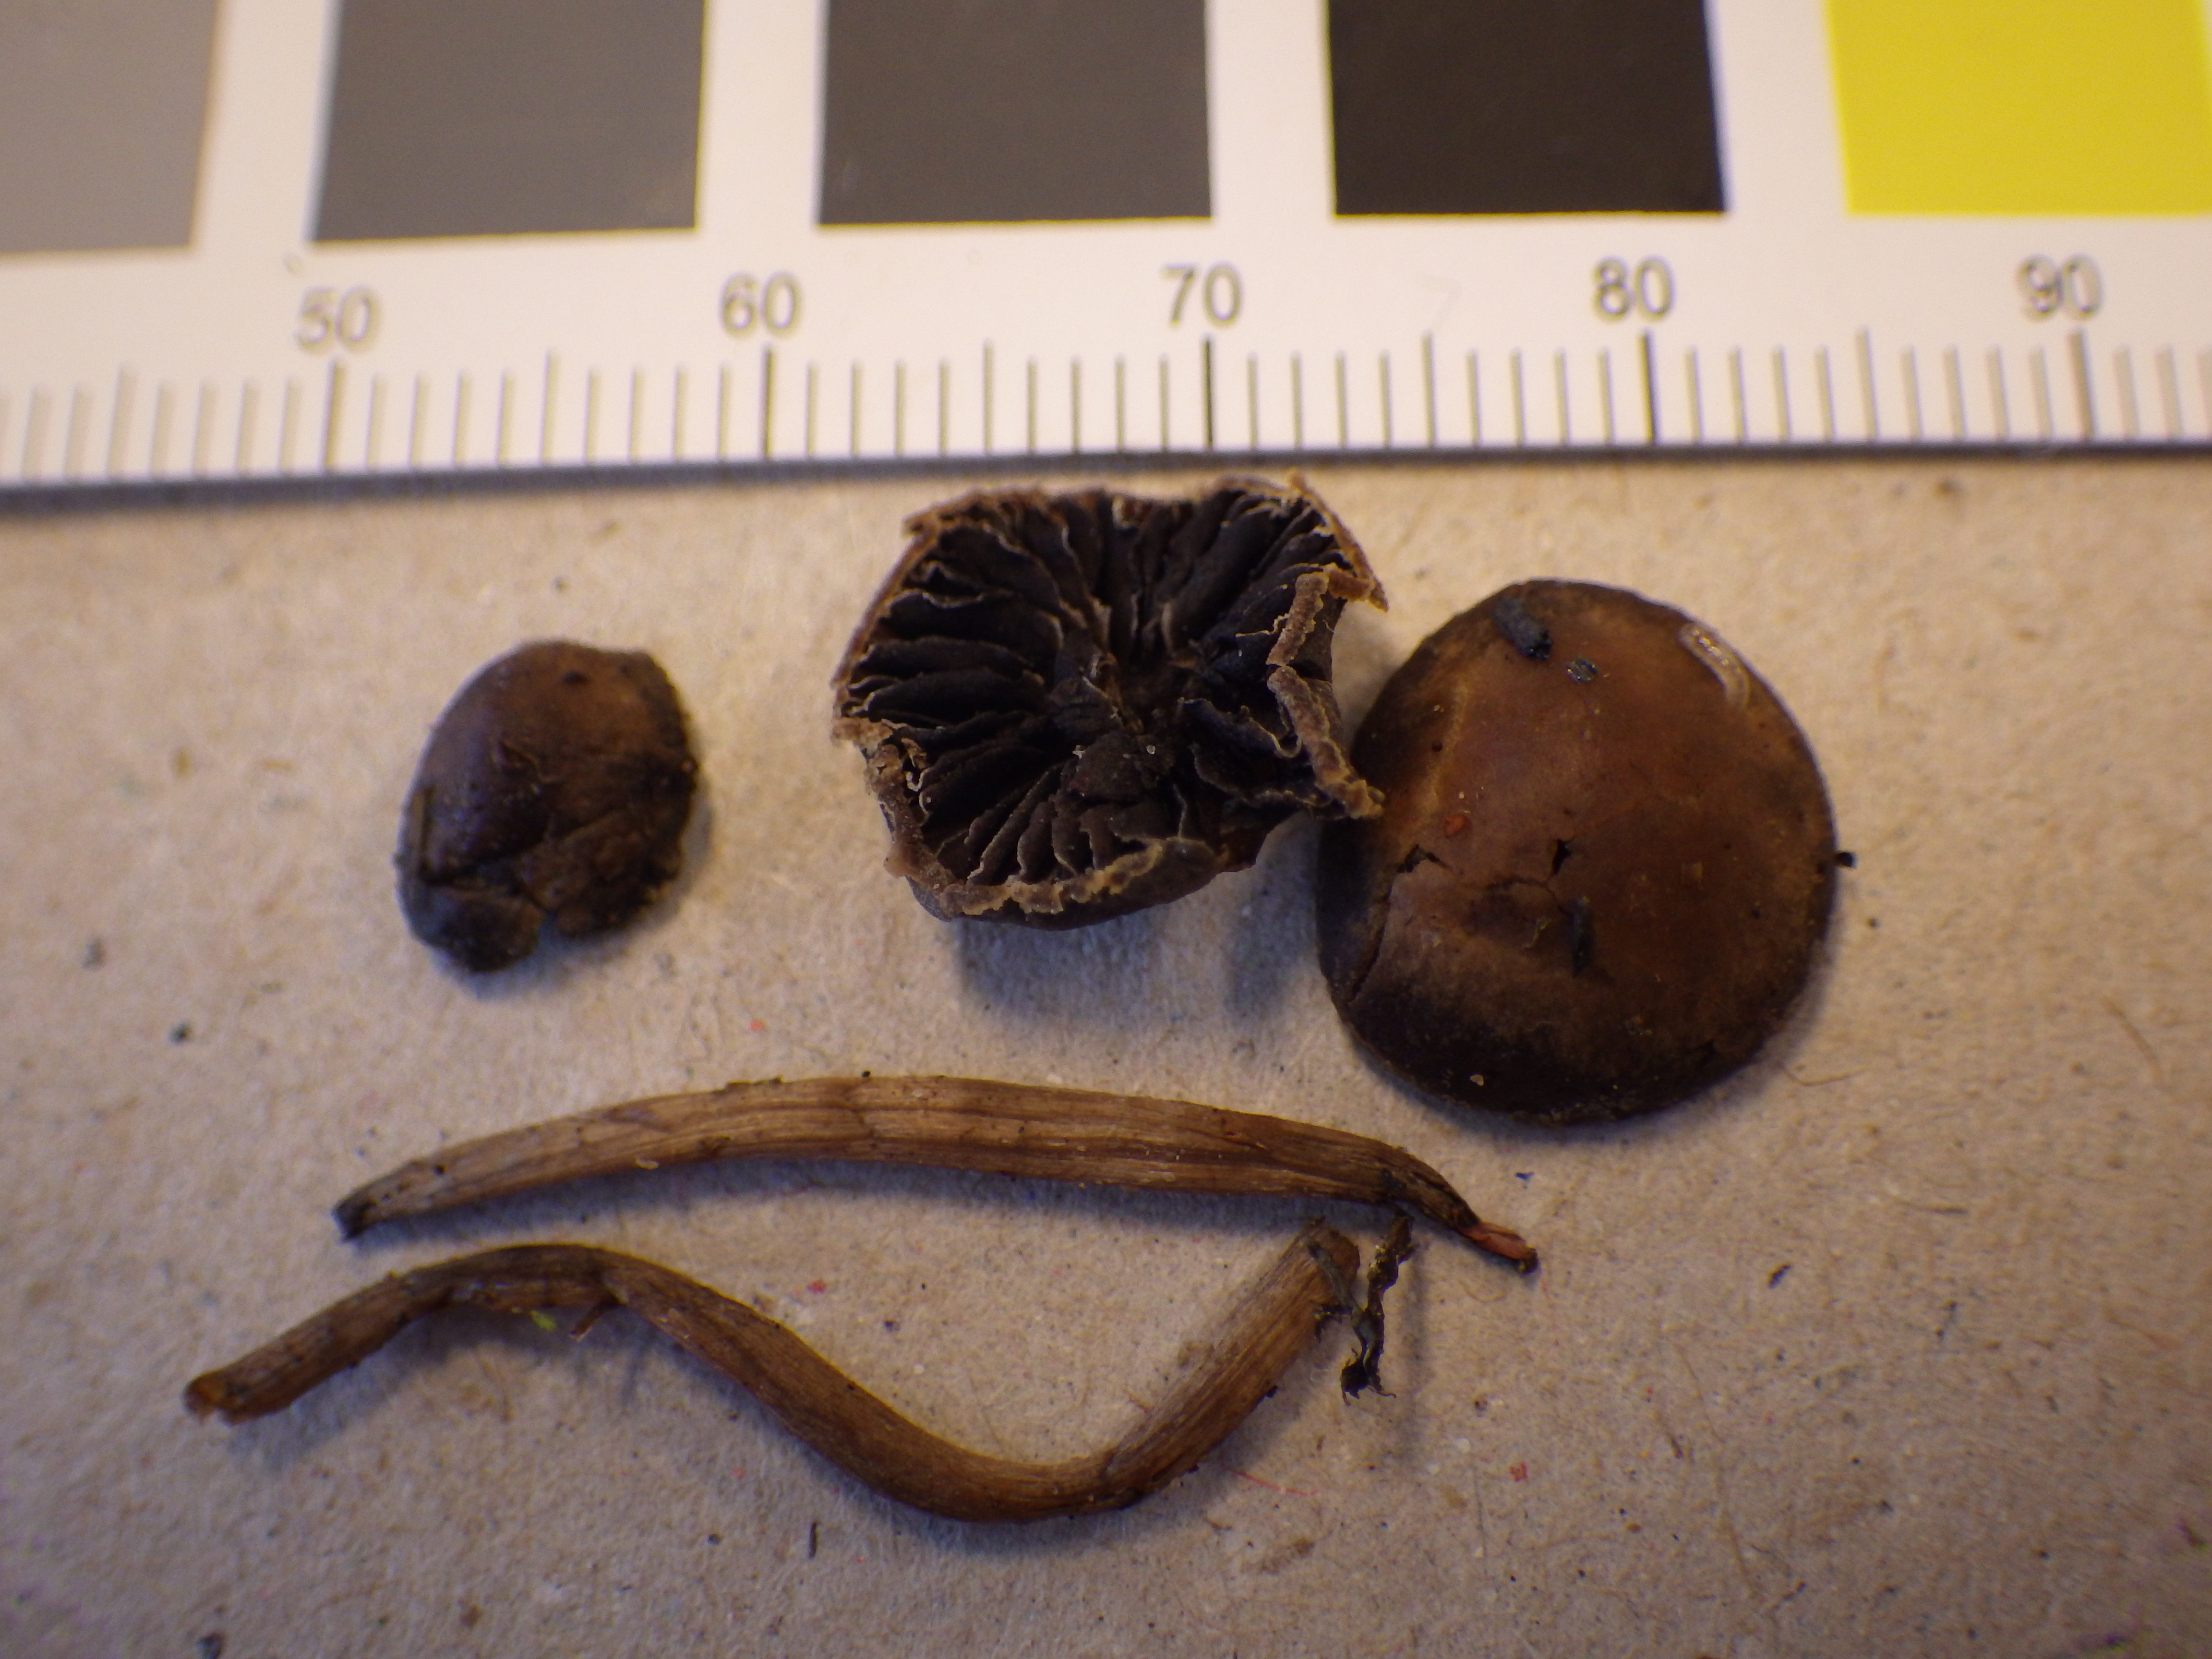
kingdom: Fungi
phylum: Basidiomycota
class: Agaricomycetes
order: Agaricales
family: Bolbitiaceae
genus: Panaeolina
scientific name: Panaeolina foenisecii
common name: Brown hay cap
